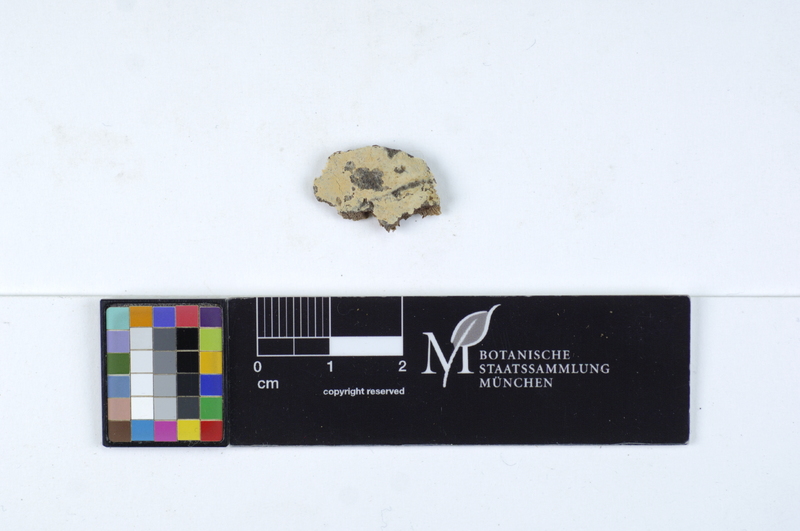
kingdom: Fungi
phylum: Basidiomycota
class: Agaricomycetes
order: Agaricales
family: Stephanosporaceae
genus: Cristinia
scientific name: Cristinia helvetica
